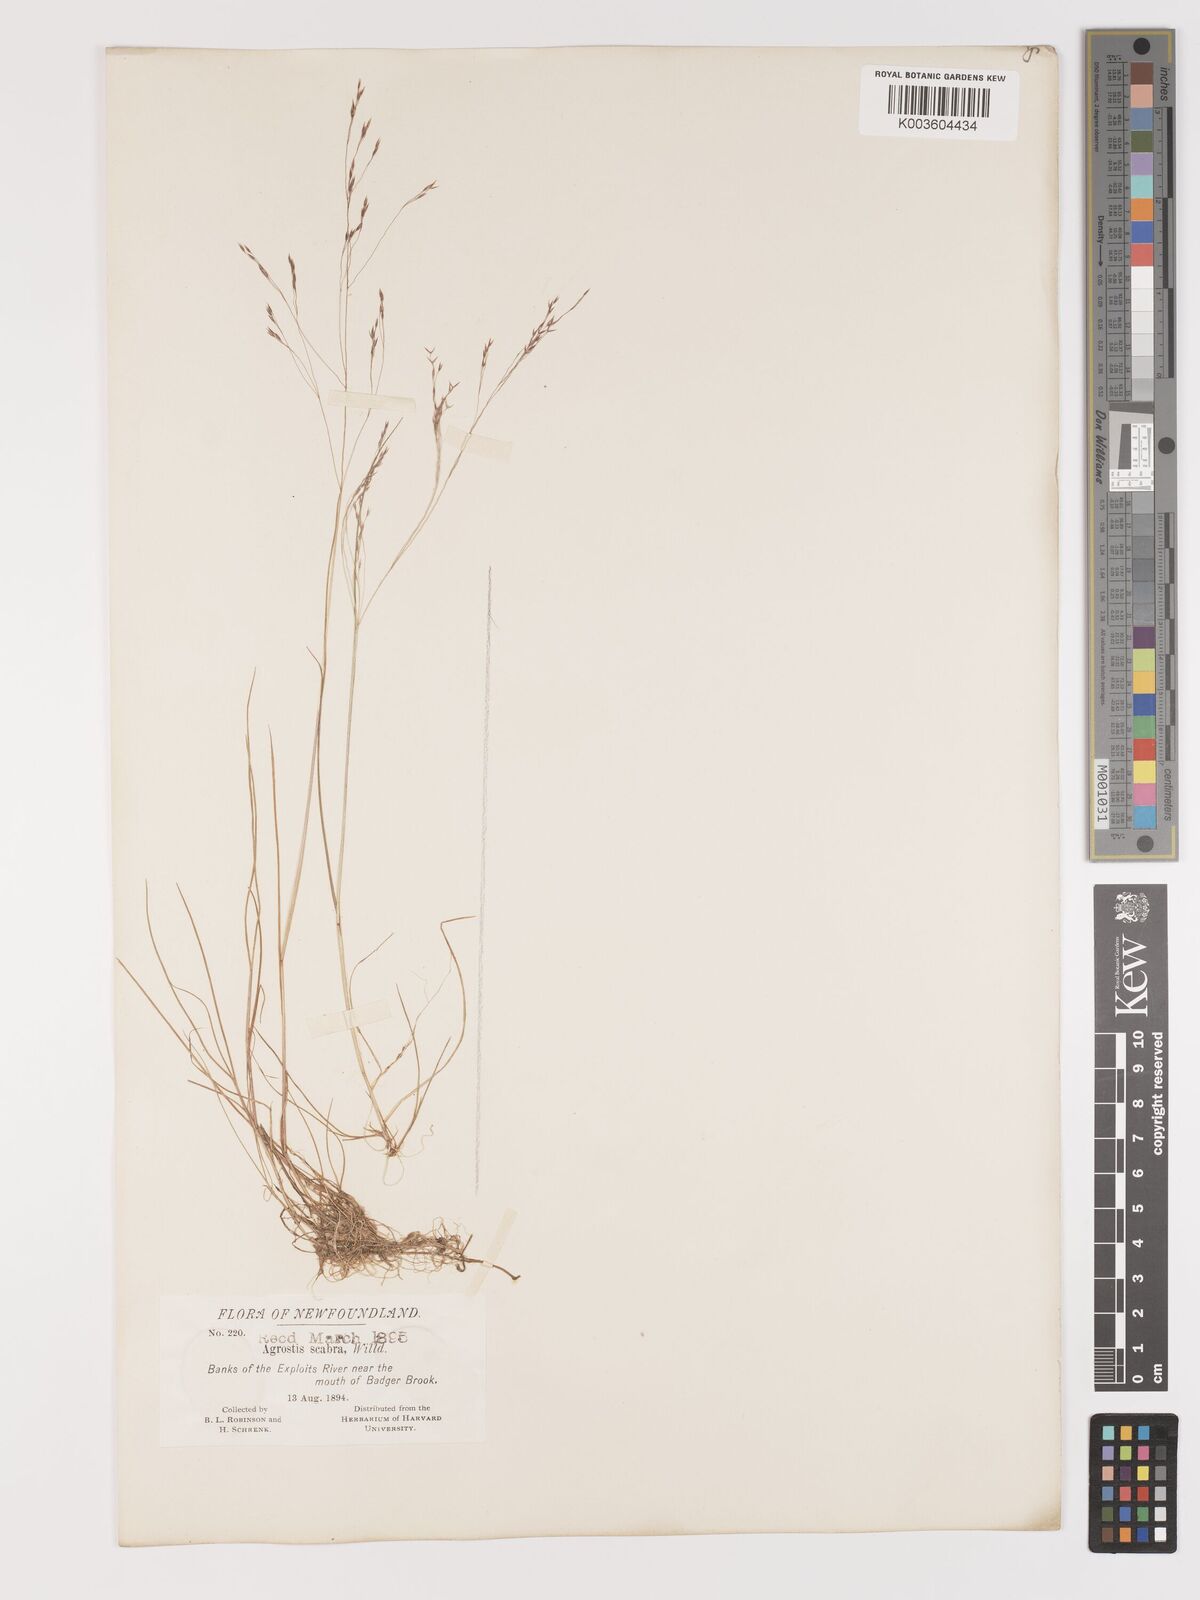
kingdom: Plantae
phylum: Tracheophyta
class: Liliopsida
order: Poales
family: Poaceae
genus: Agrostis
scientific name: Agrostis hyemalis
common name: Small bent
